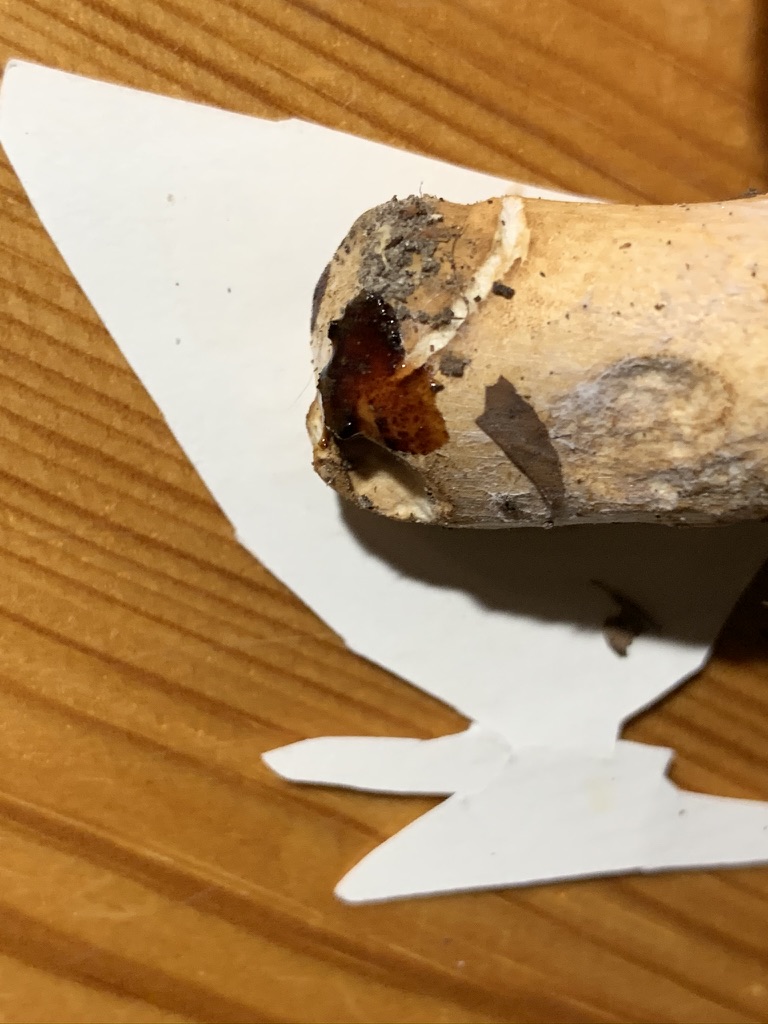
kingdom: Fungi
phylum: Basidiomycota
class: Agaricomycetes
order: Russulales
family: Russulaceae
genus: Russula
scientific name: Russula viscida
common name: knippe-skørhat
